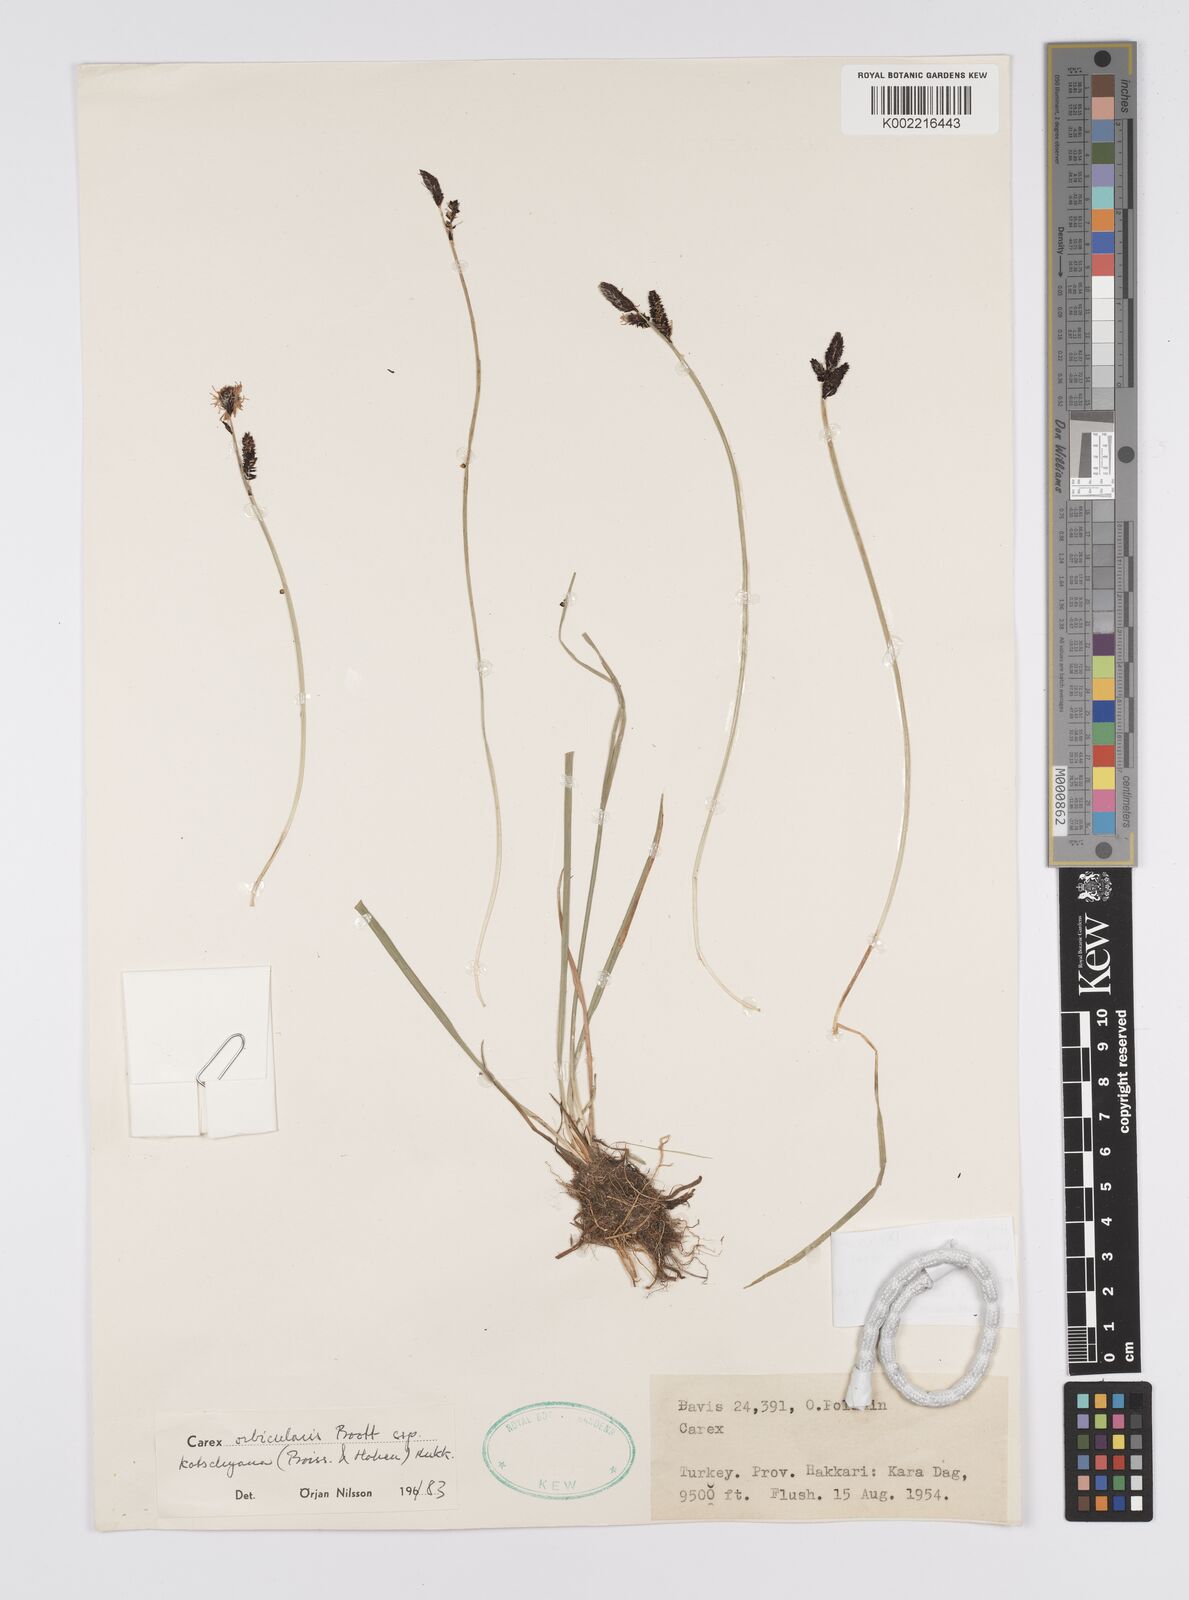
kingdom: Plantae
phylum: Tracheophyta
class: Liliopsida
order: Poales
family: Cyperaceae
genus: Carex
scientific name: Carex nigra
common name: Common sedge
